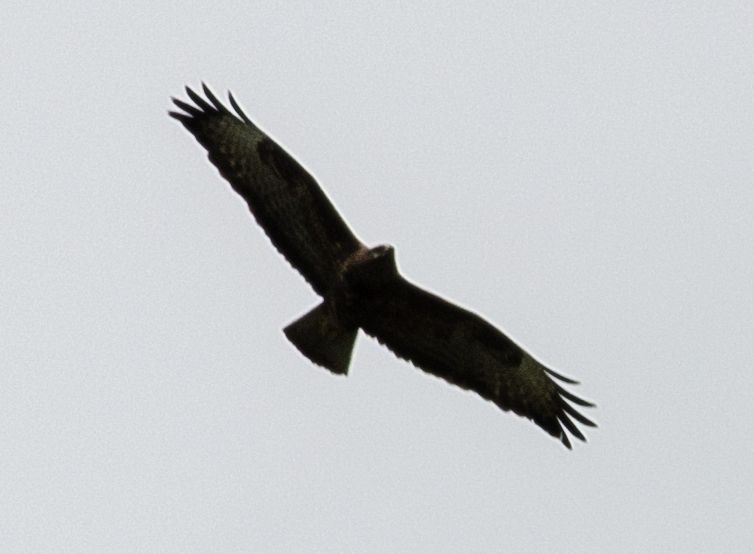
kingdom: Animalia
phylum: Chordata
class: Aves
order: Accipitriformes
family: Accipitridae
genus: Buteo
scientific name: Buteo buteo
